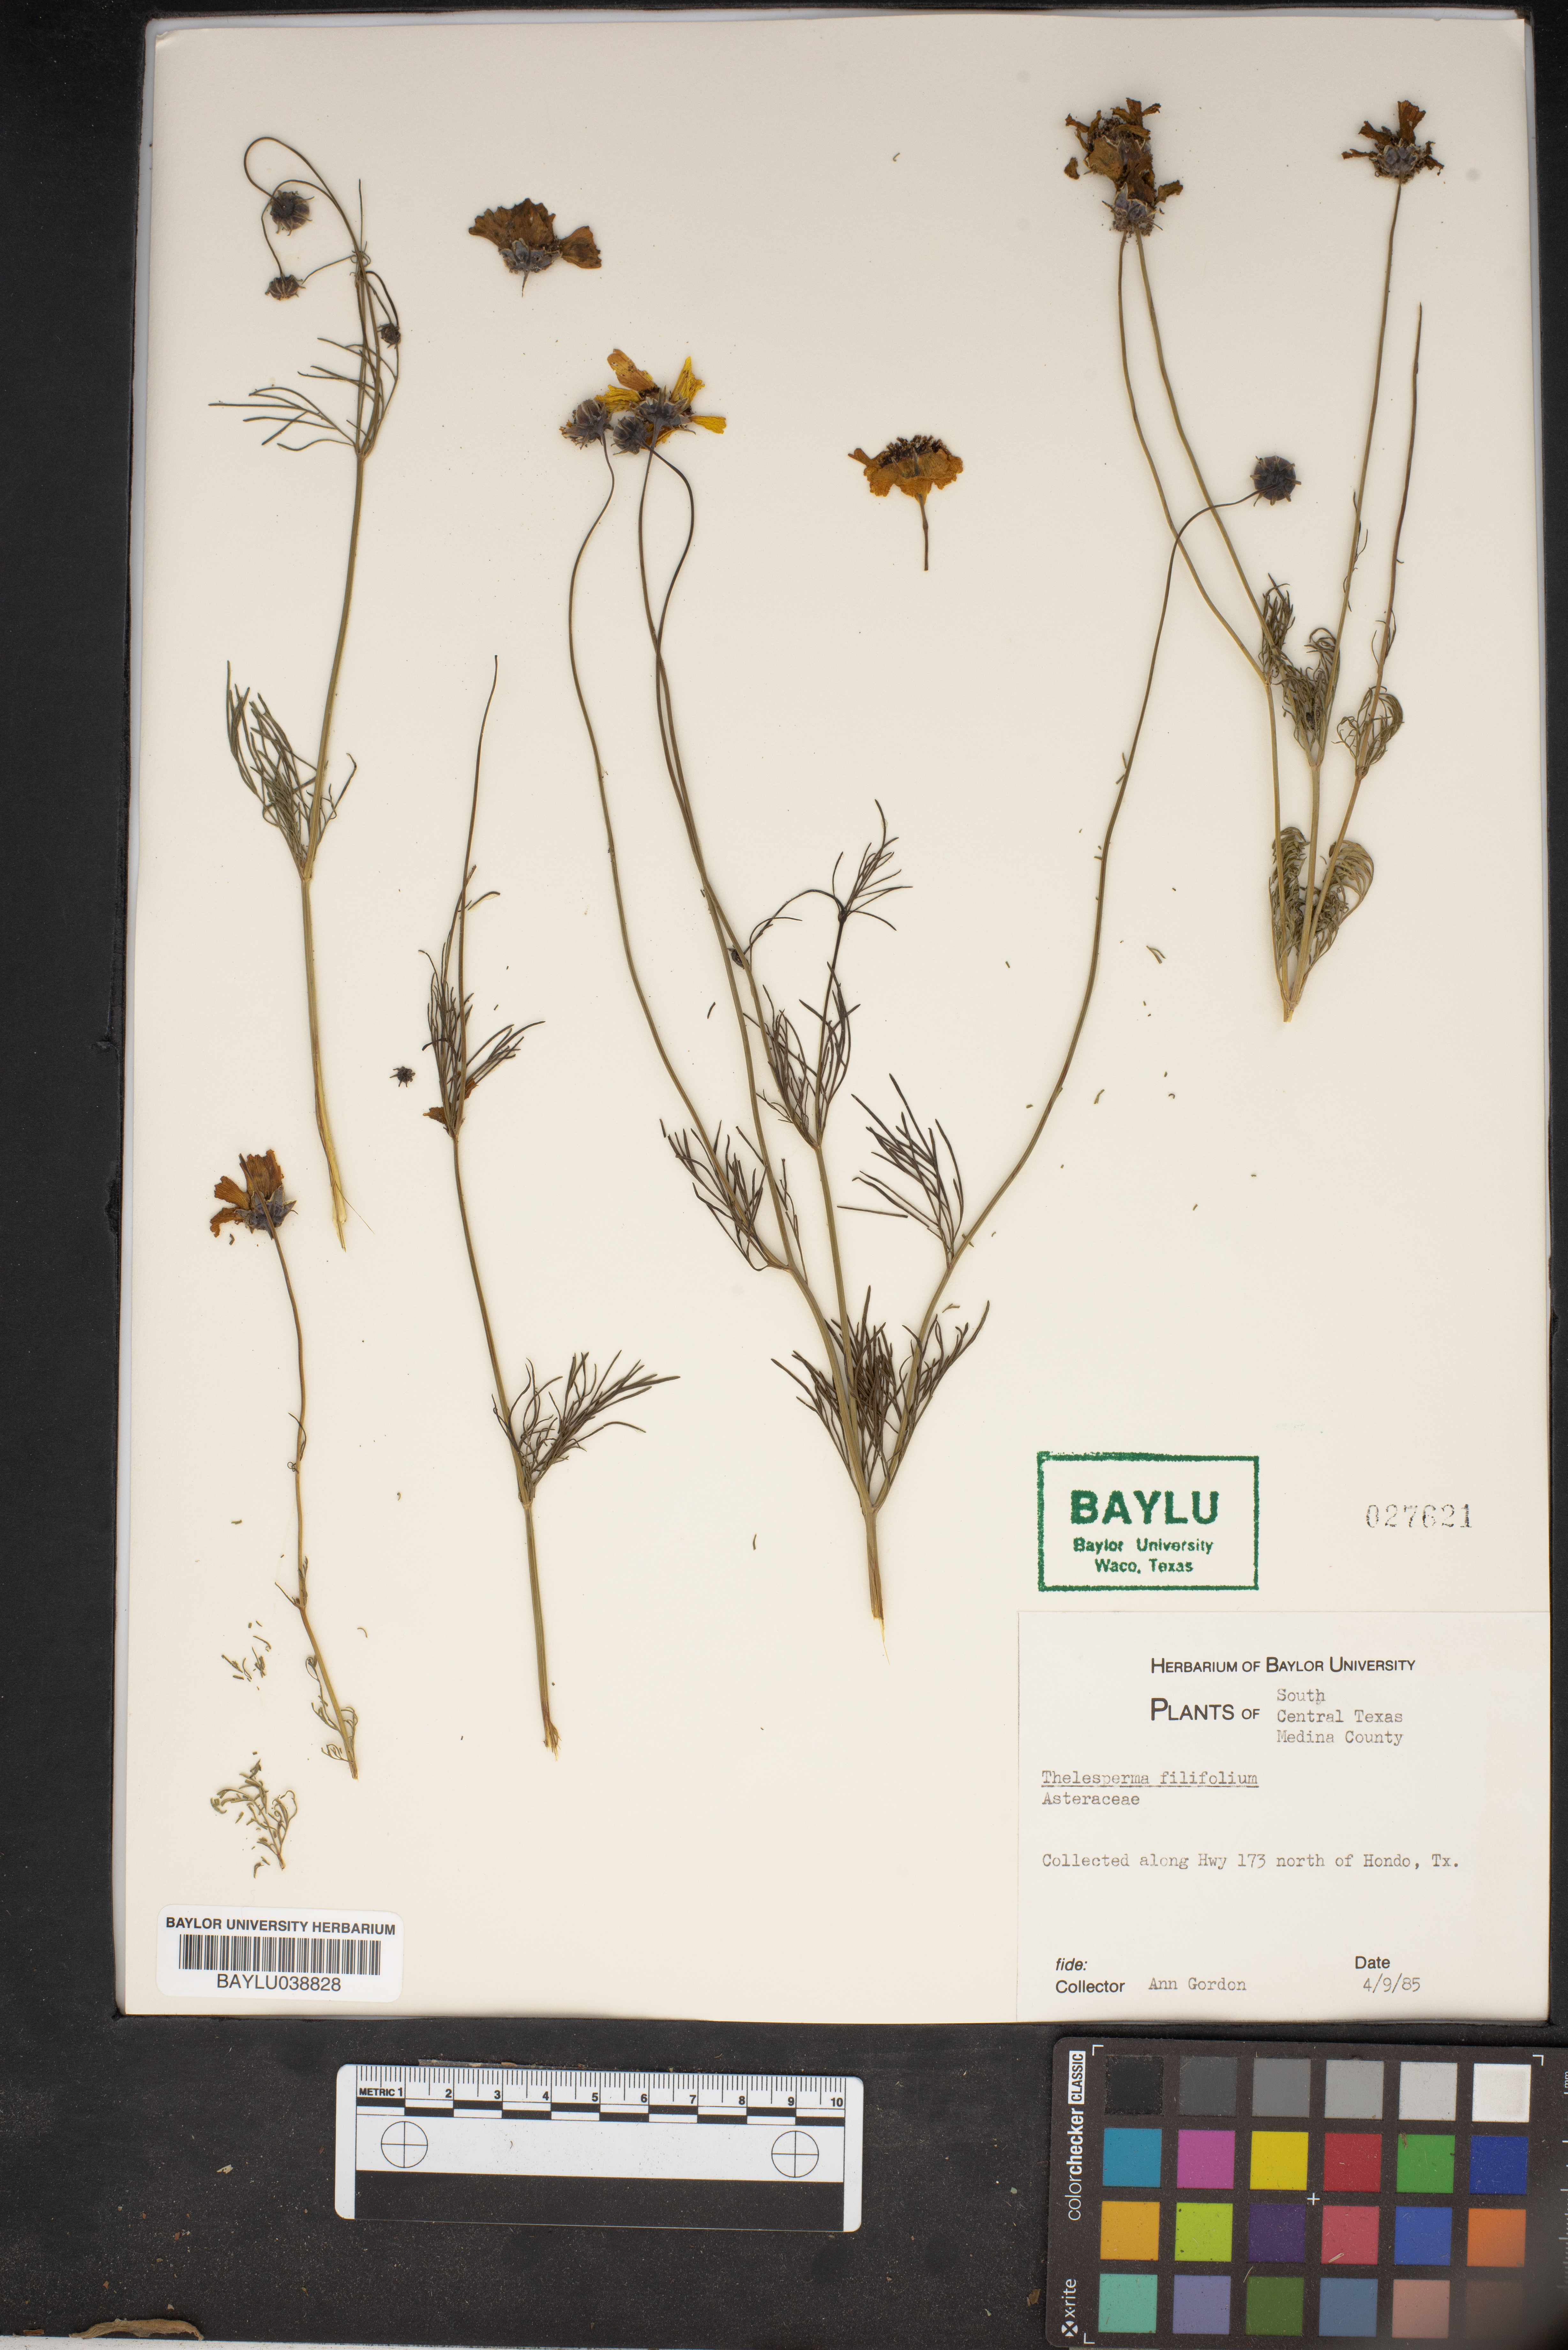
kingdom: Plantae
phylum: Tracheophyta
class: Magnoliopsida
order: Asterales
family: Asteraceae
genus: Thelesperma
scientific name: Thelesperma filifolium
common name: Stiff greenthread
